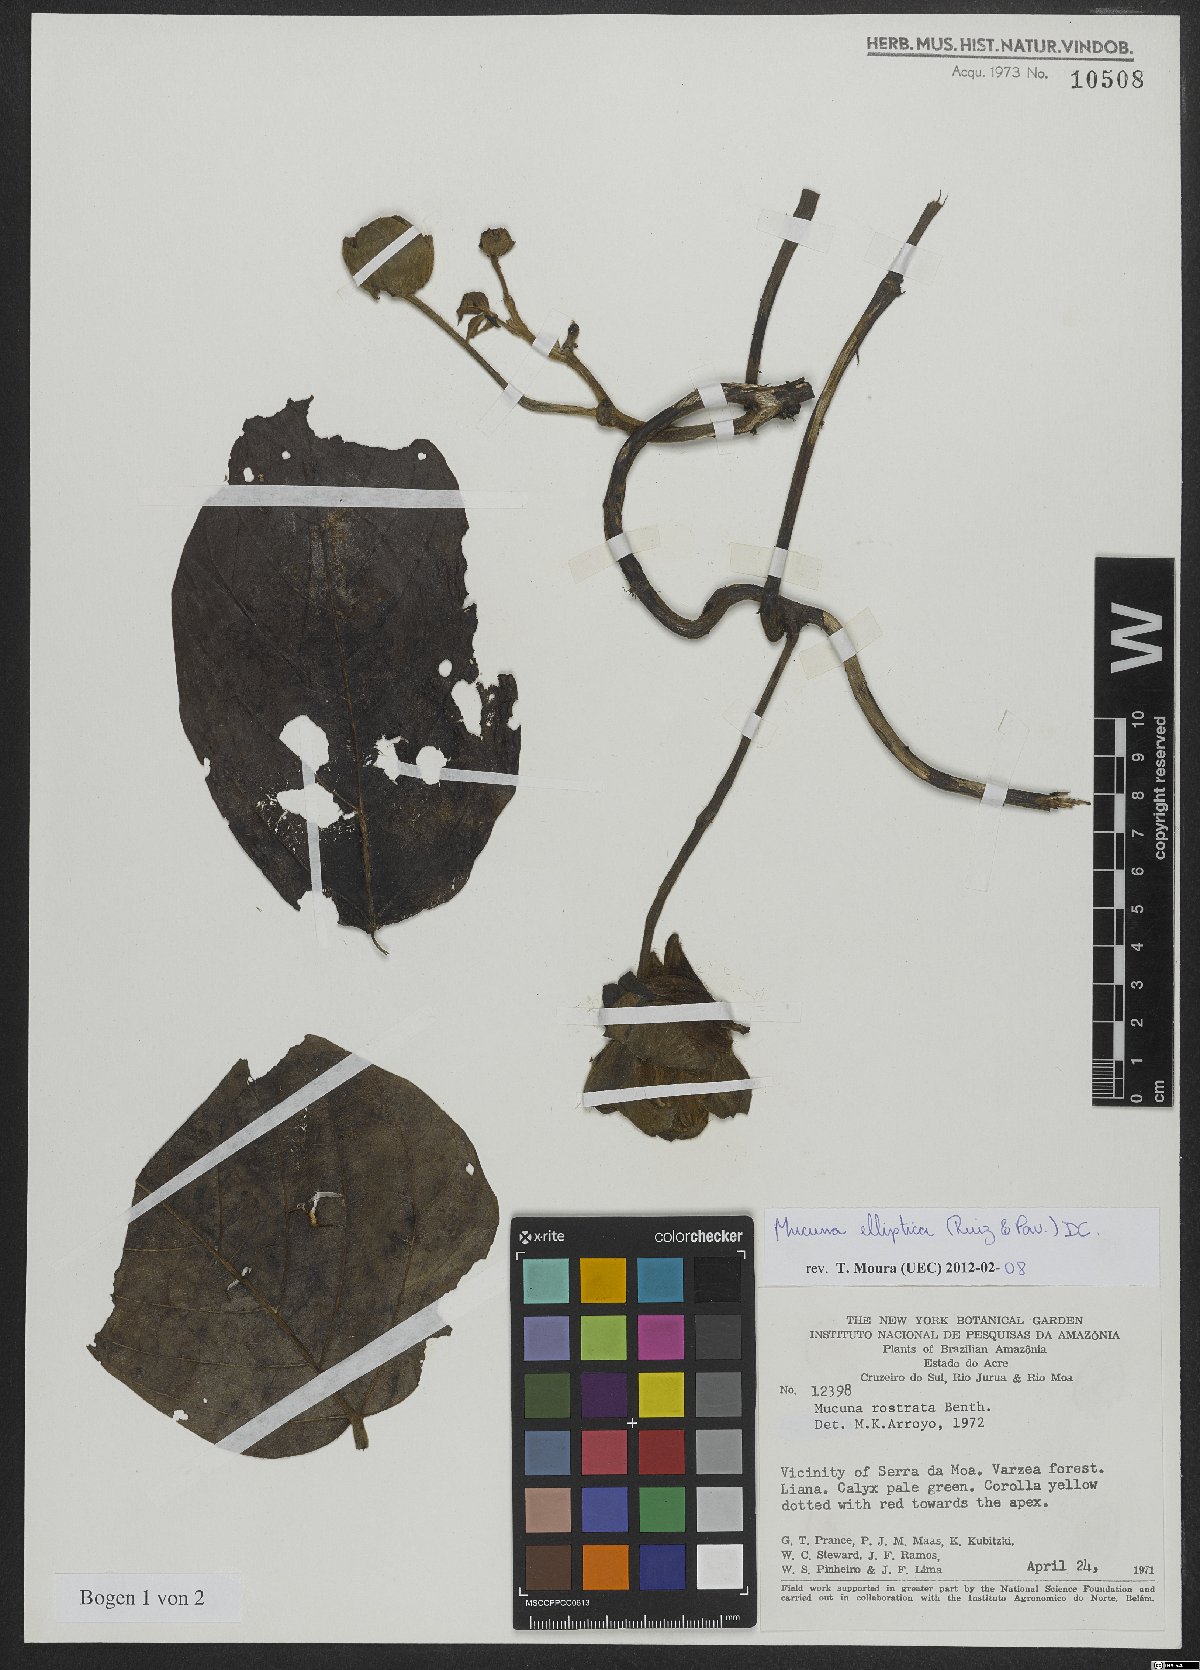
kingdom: Plantae
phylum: Tracheophyta
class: Magnoliopsida
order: Fabales
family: Fabaceae
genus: Mucuna
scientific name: Mucuna elliptica
